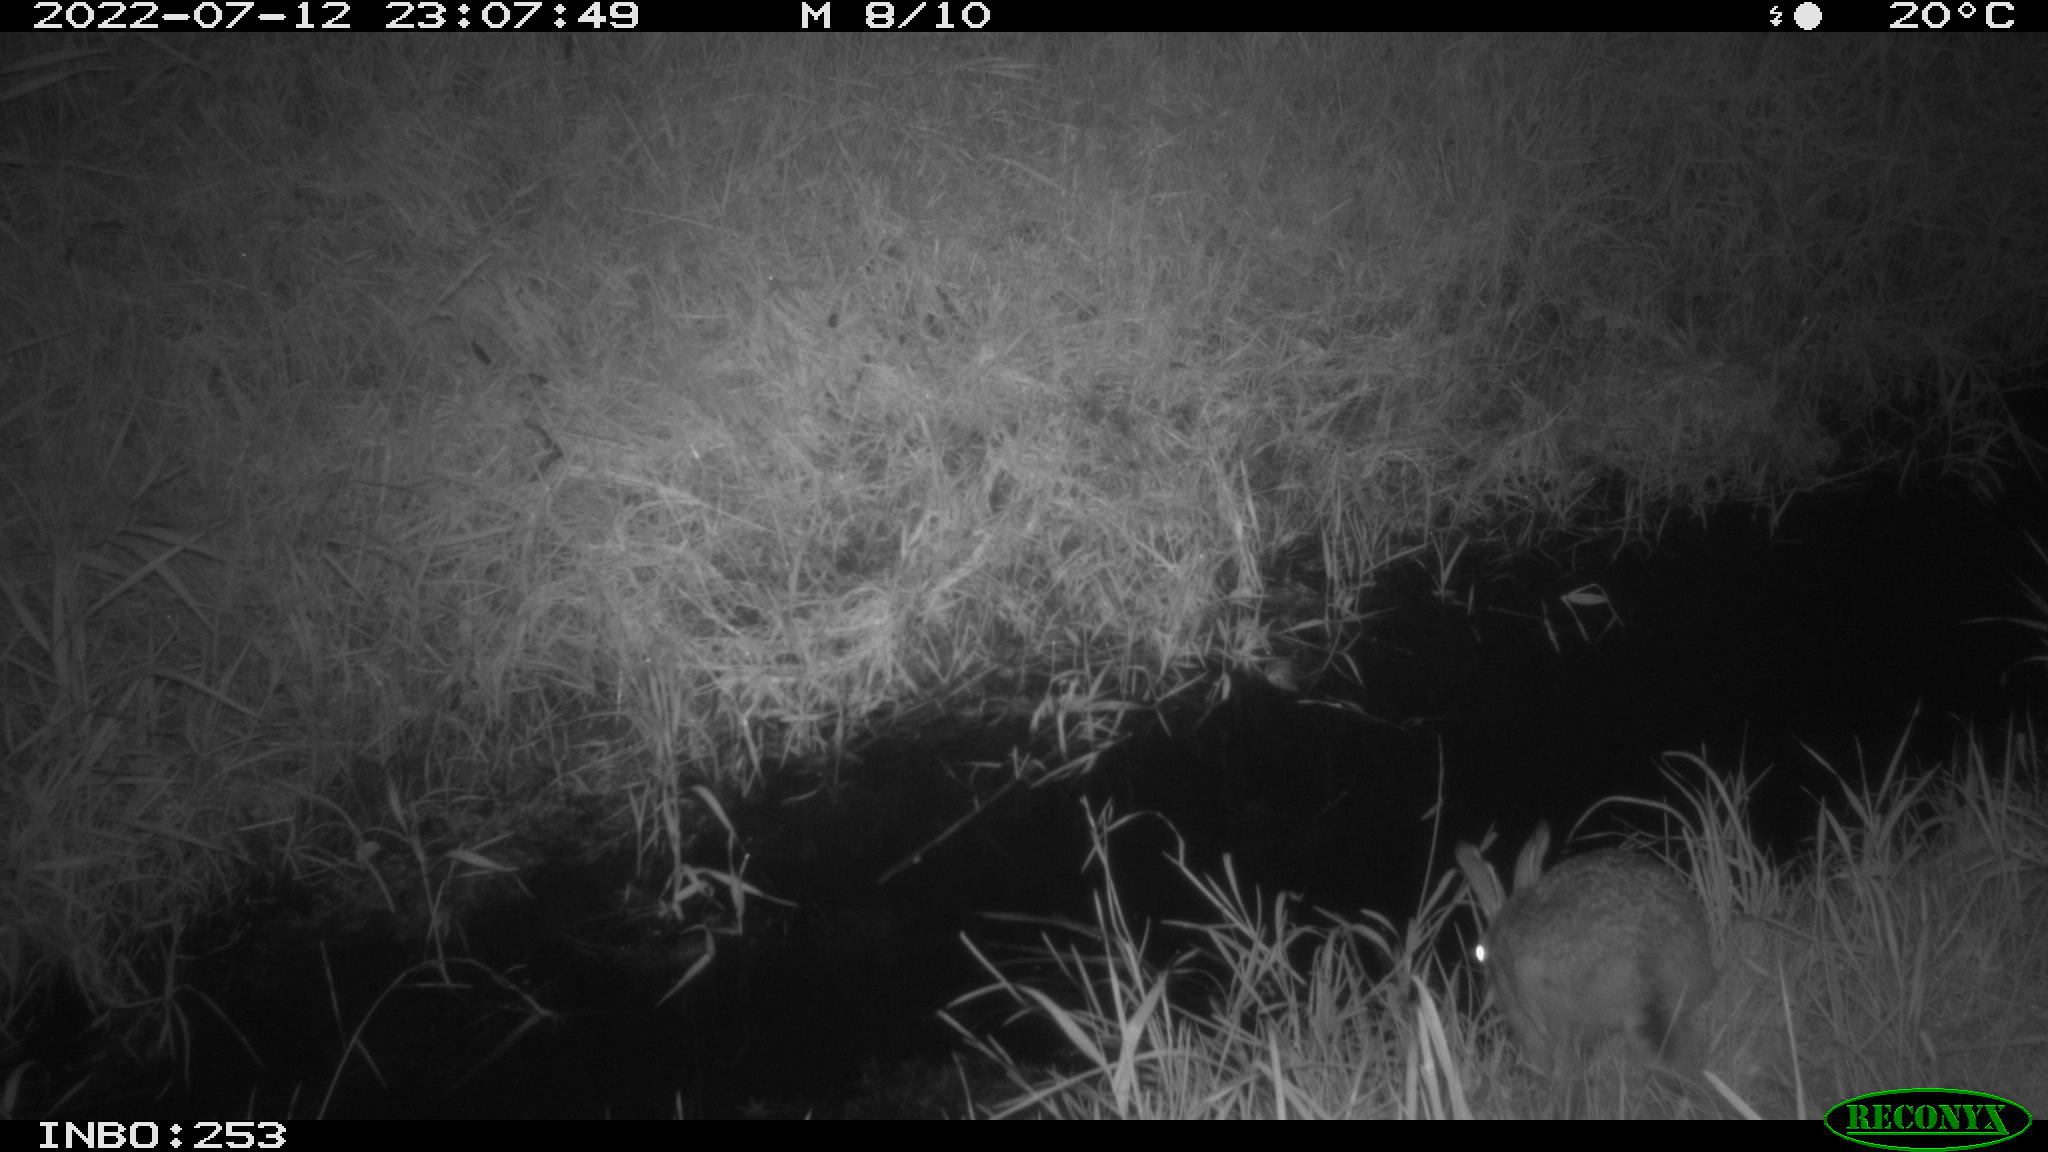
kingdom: Animalia
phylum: Chordata
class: Mammalia
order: Lagomorpha
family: Leporidae
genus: Lepus
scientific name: Lepus europaeus
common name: European hare
